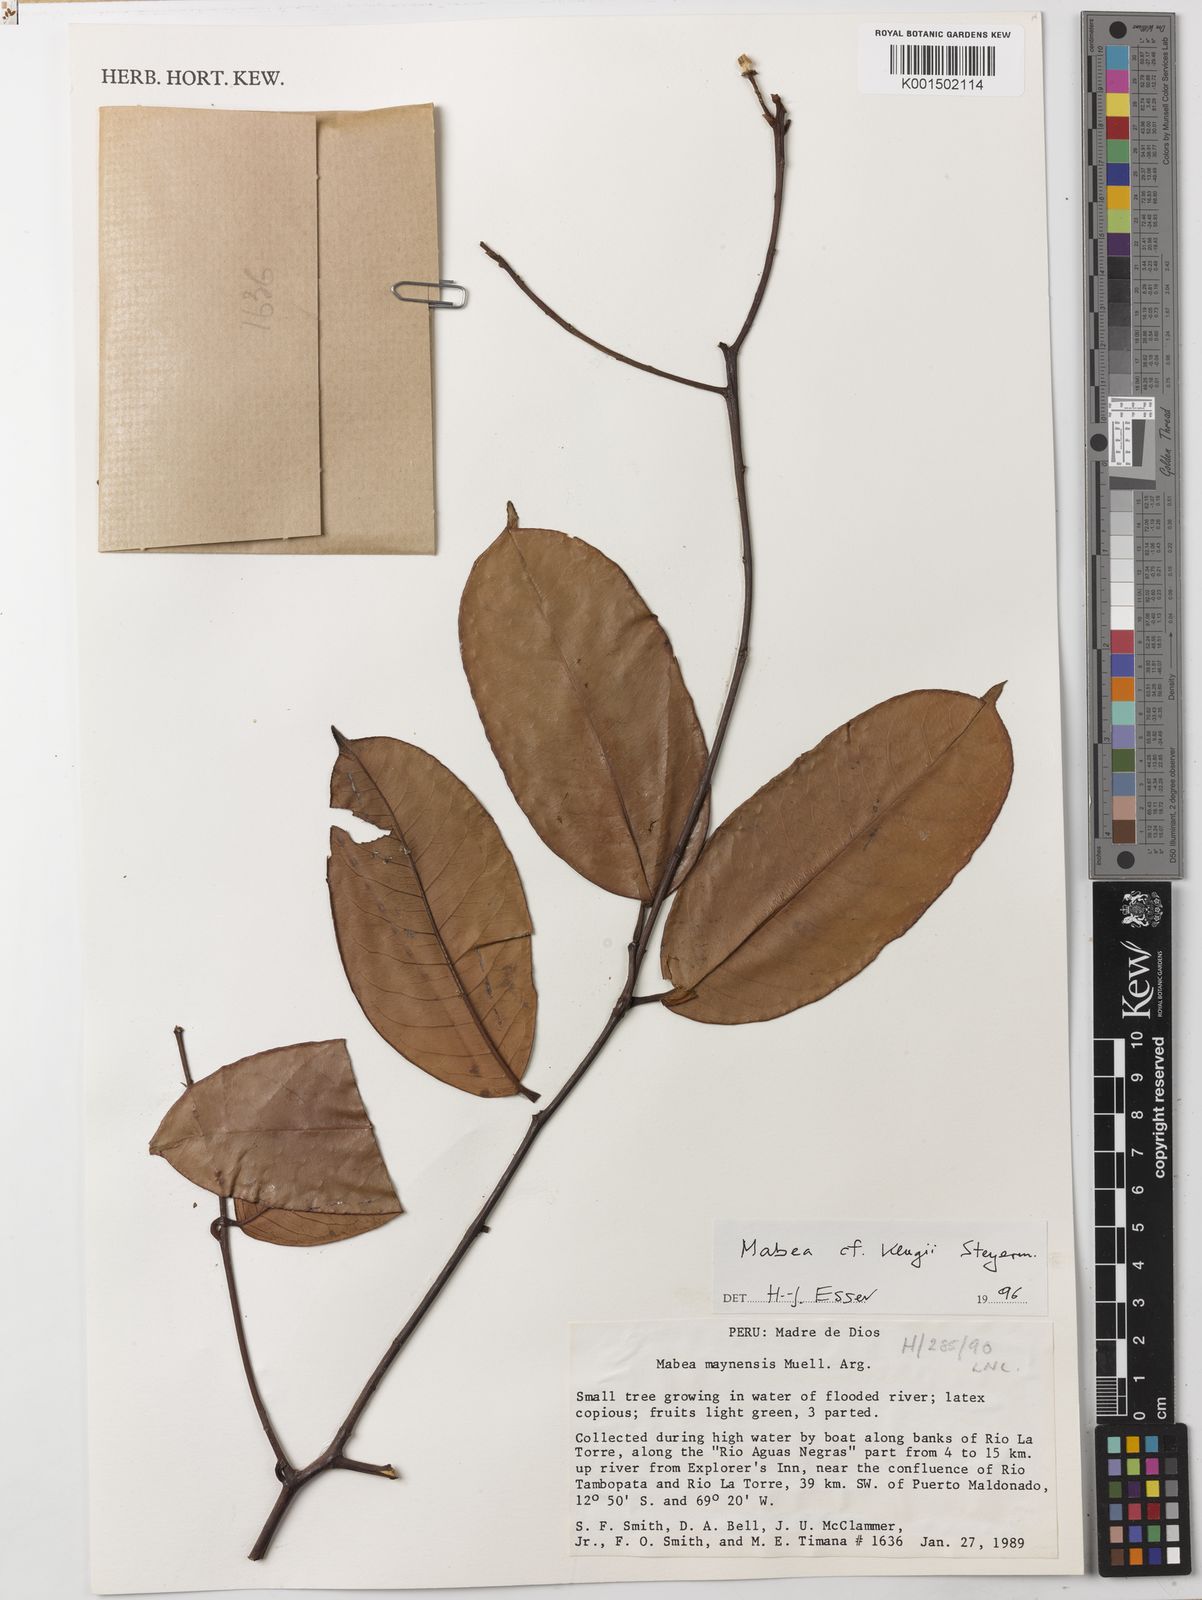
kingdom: Plantae
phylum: Tracheophyta
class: Magnoliopsida
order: Malpighiales
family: Euphorbiaceae
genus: Mabea
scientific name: Mabea klugii
